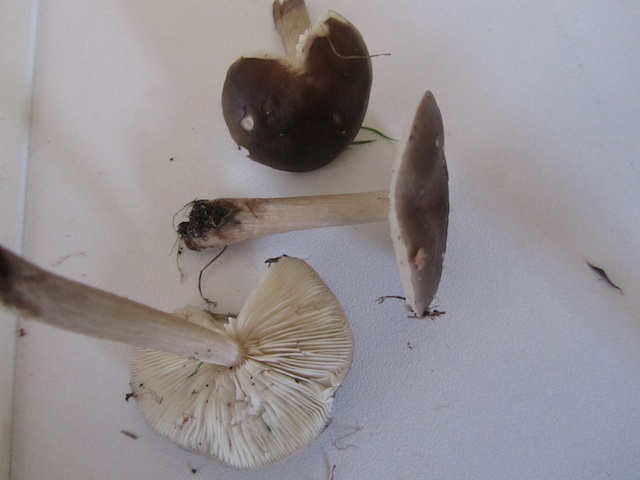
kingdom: Fungi
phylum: Basidiomycota
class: Agaricomycetes
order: Agaricales
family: Tricholomataceae
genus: Melanoleuca
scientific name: Melanoleuca polioleuca
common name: hvidbladet munkehat
